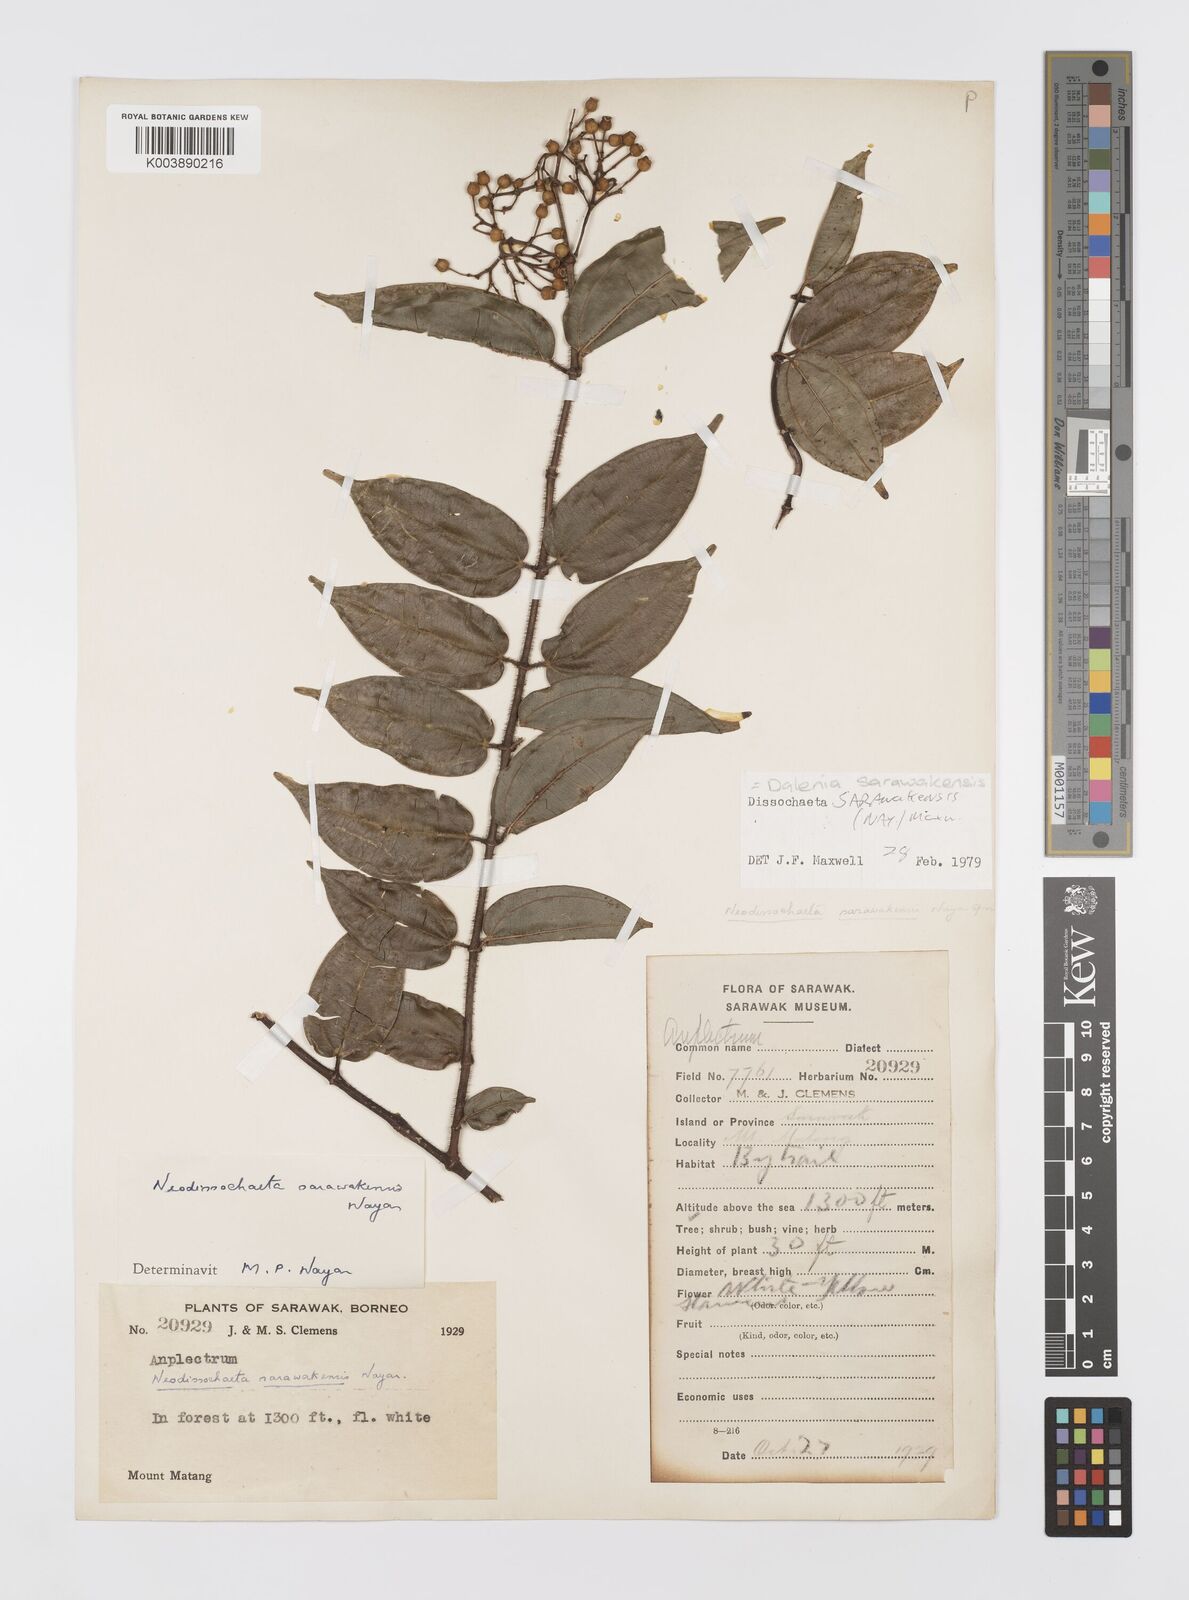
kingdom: Plantae
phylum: Tracheophyta
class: Magnoliopsida
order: Myrtales
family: Melastomataceae
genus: Dalenia
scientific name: Dalenia
